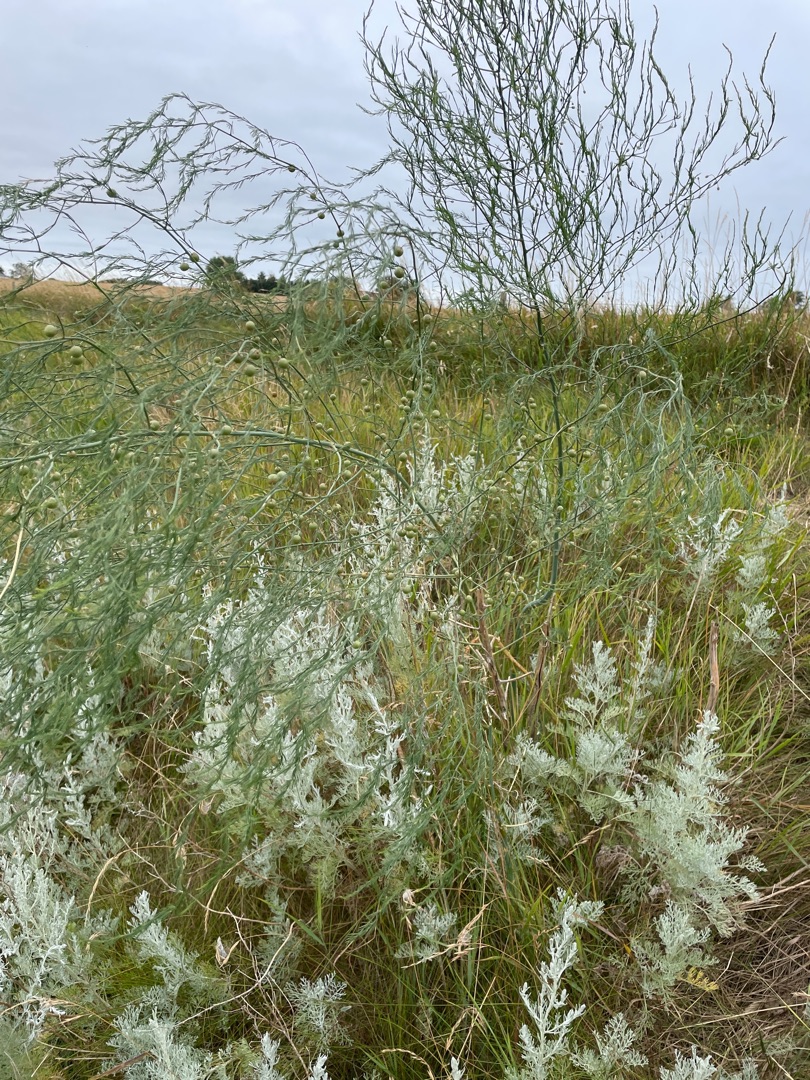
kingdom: Plantae
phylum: Tracheophyta
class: Liliopsida
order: Asparagales
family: Asparagaceae
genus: Asparagus
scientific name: Asparagus officinalis
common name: Asparges
